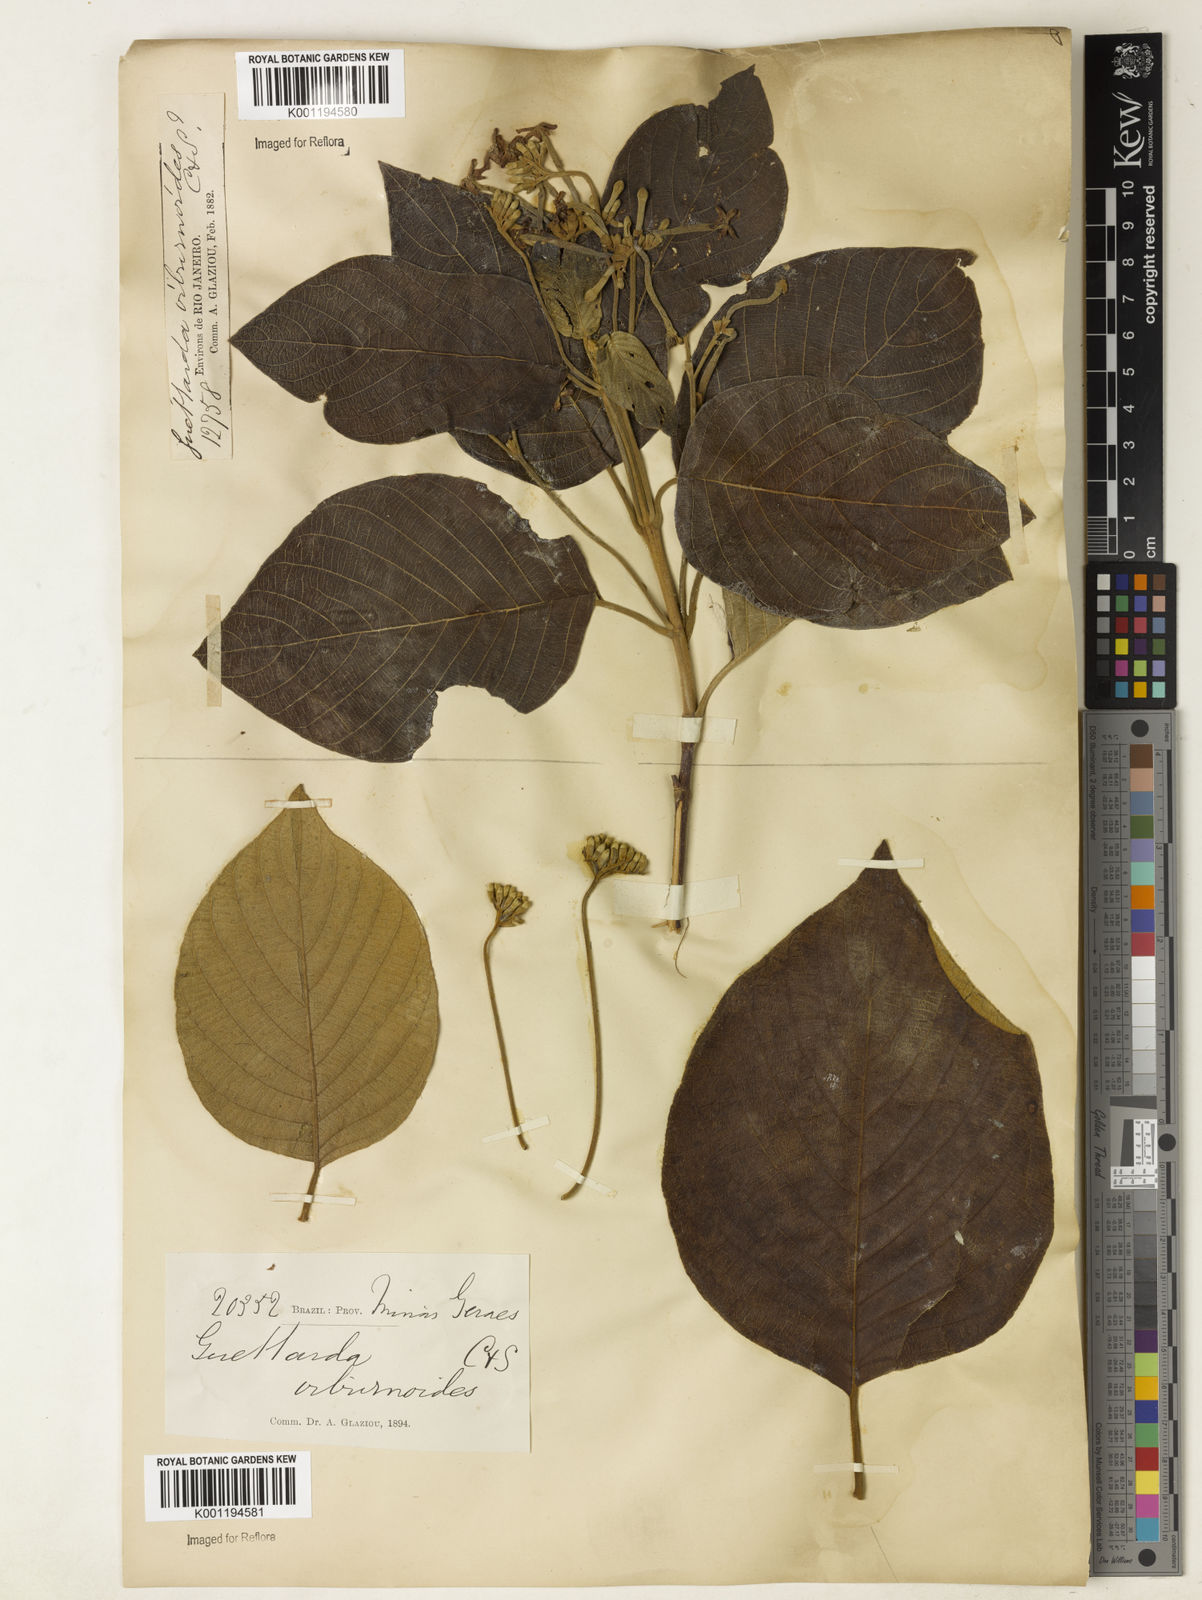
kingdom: Plantae
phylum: Tracheophyta
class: Magnoliopsida
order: Gentianales
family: Rubiaceae
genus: Guettarda
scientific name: Guettarda viburnoides
